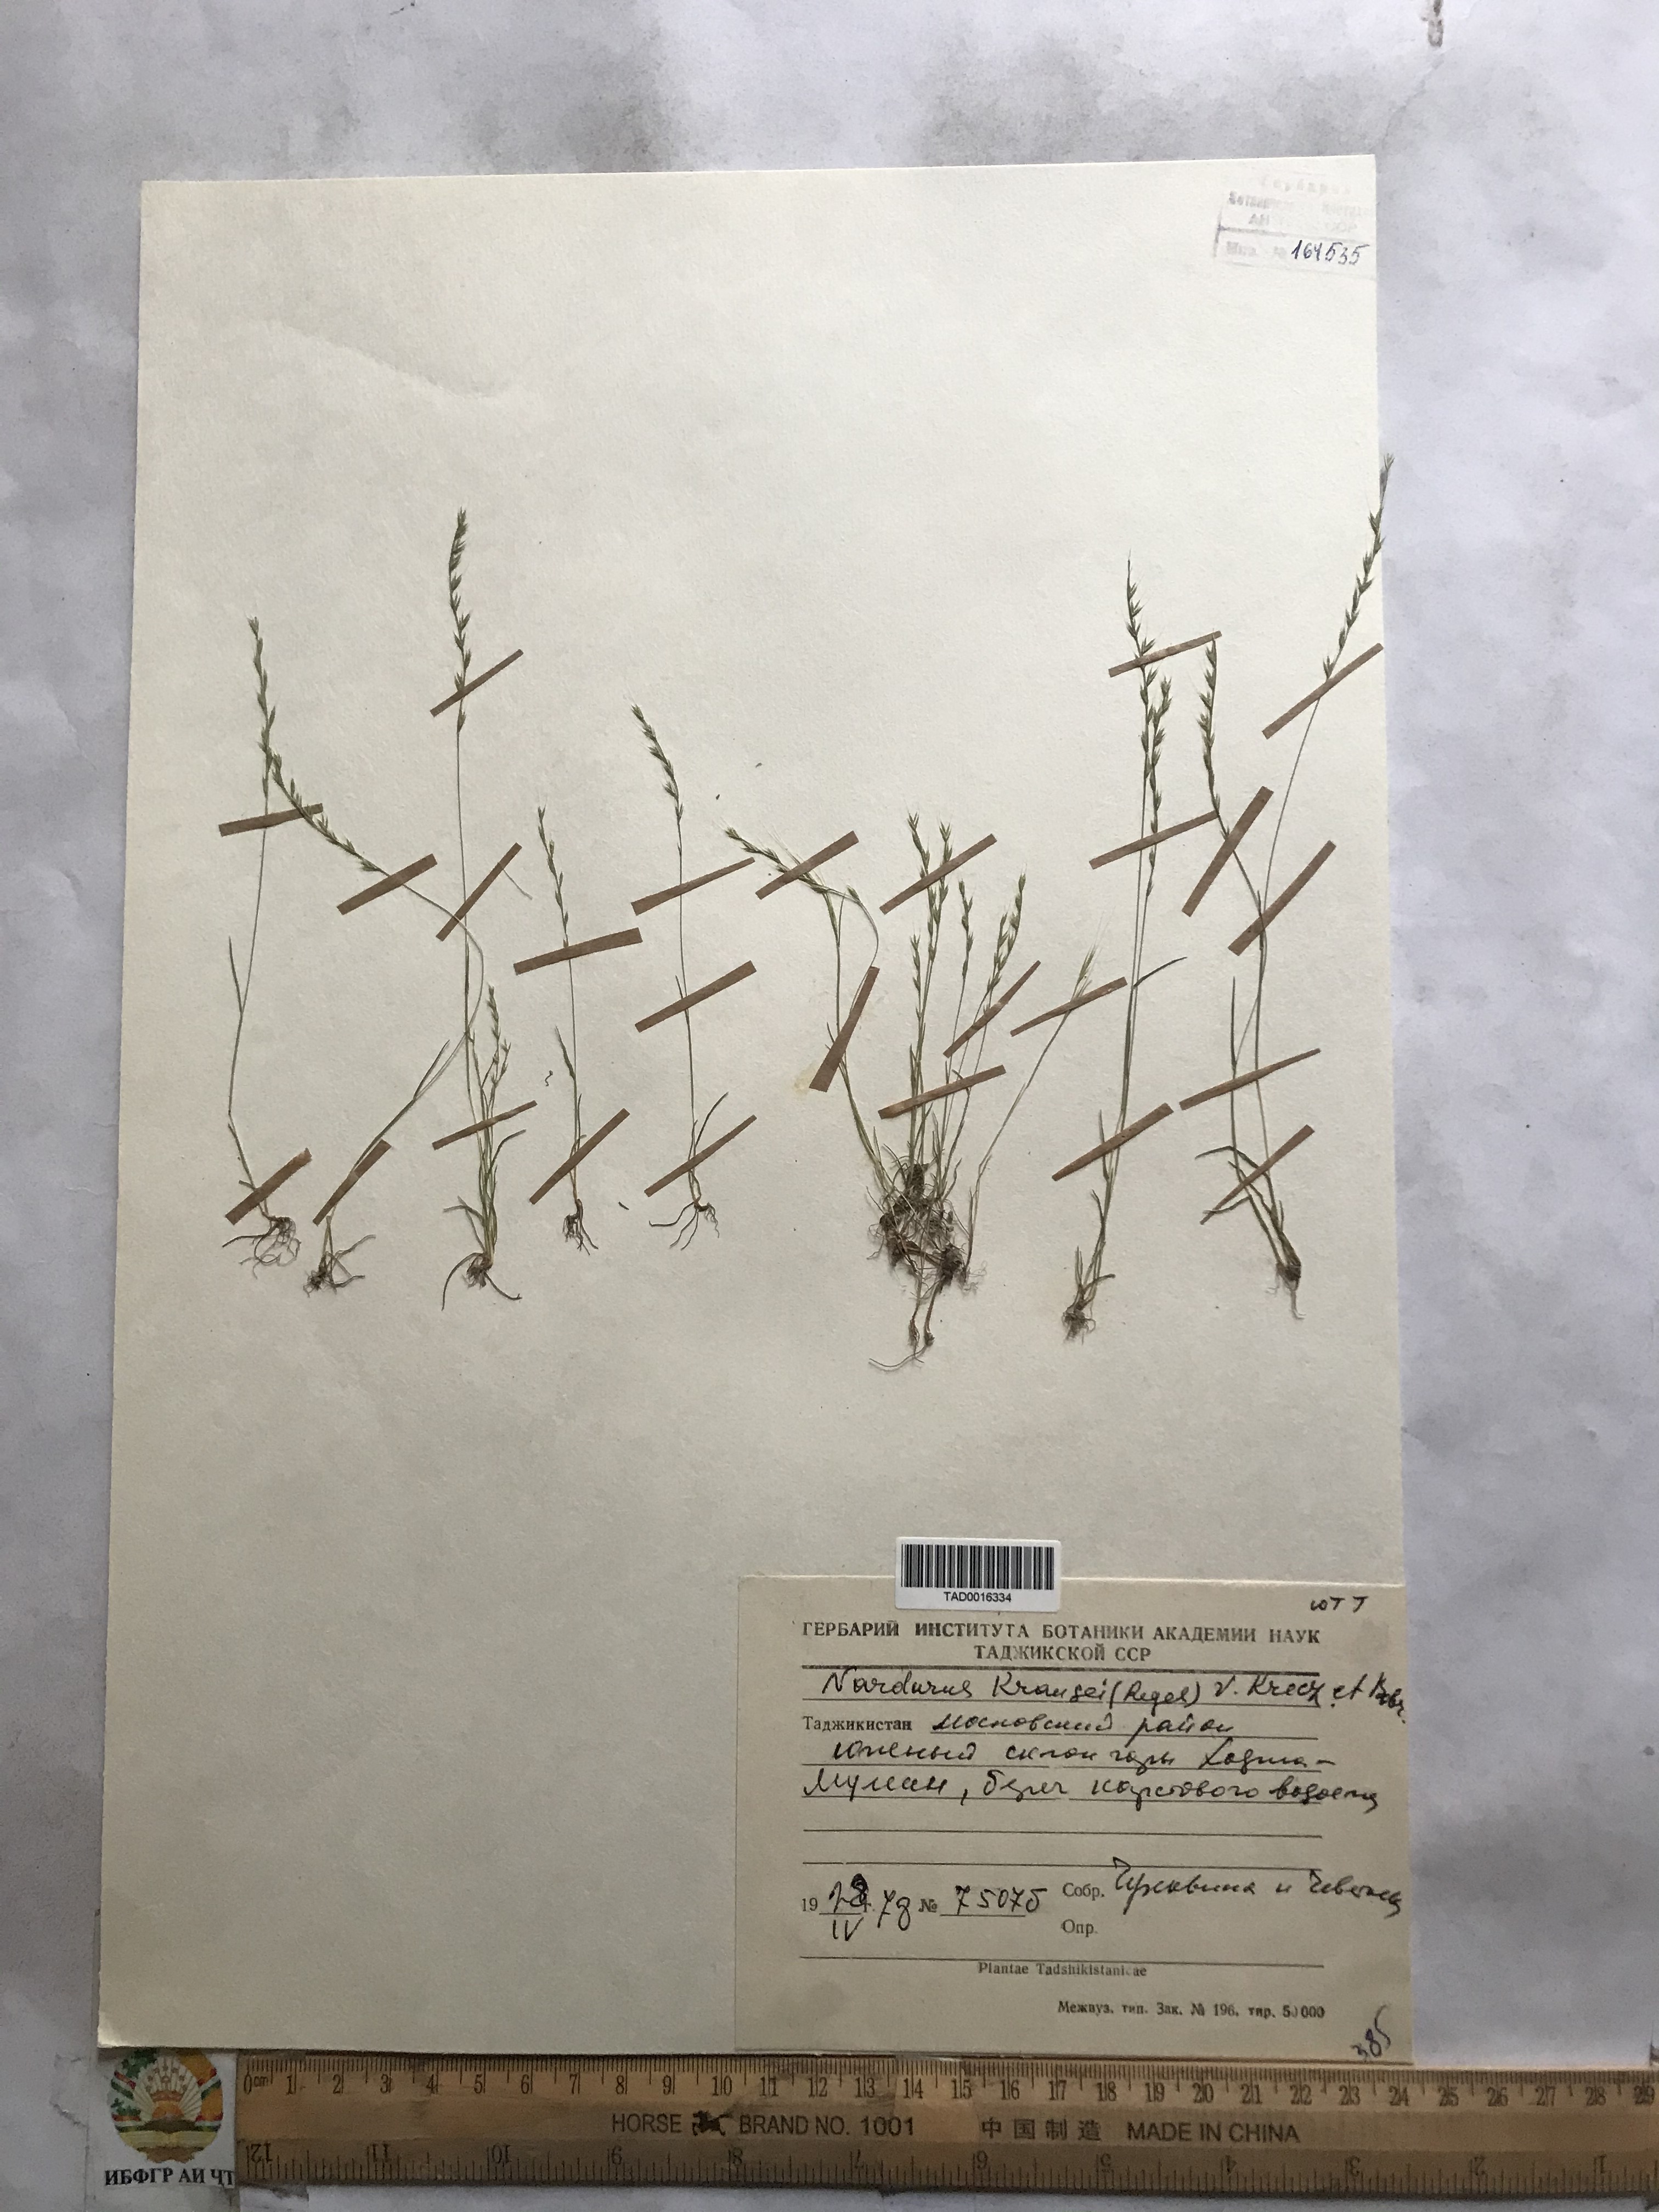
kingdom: Plantae
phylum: Tracheophyta
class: Liliopsida
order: Poales
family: Poaceae
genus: Festuca
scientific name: Festuca maritima
